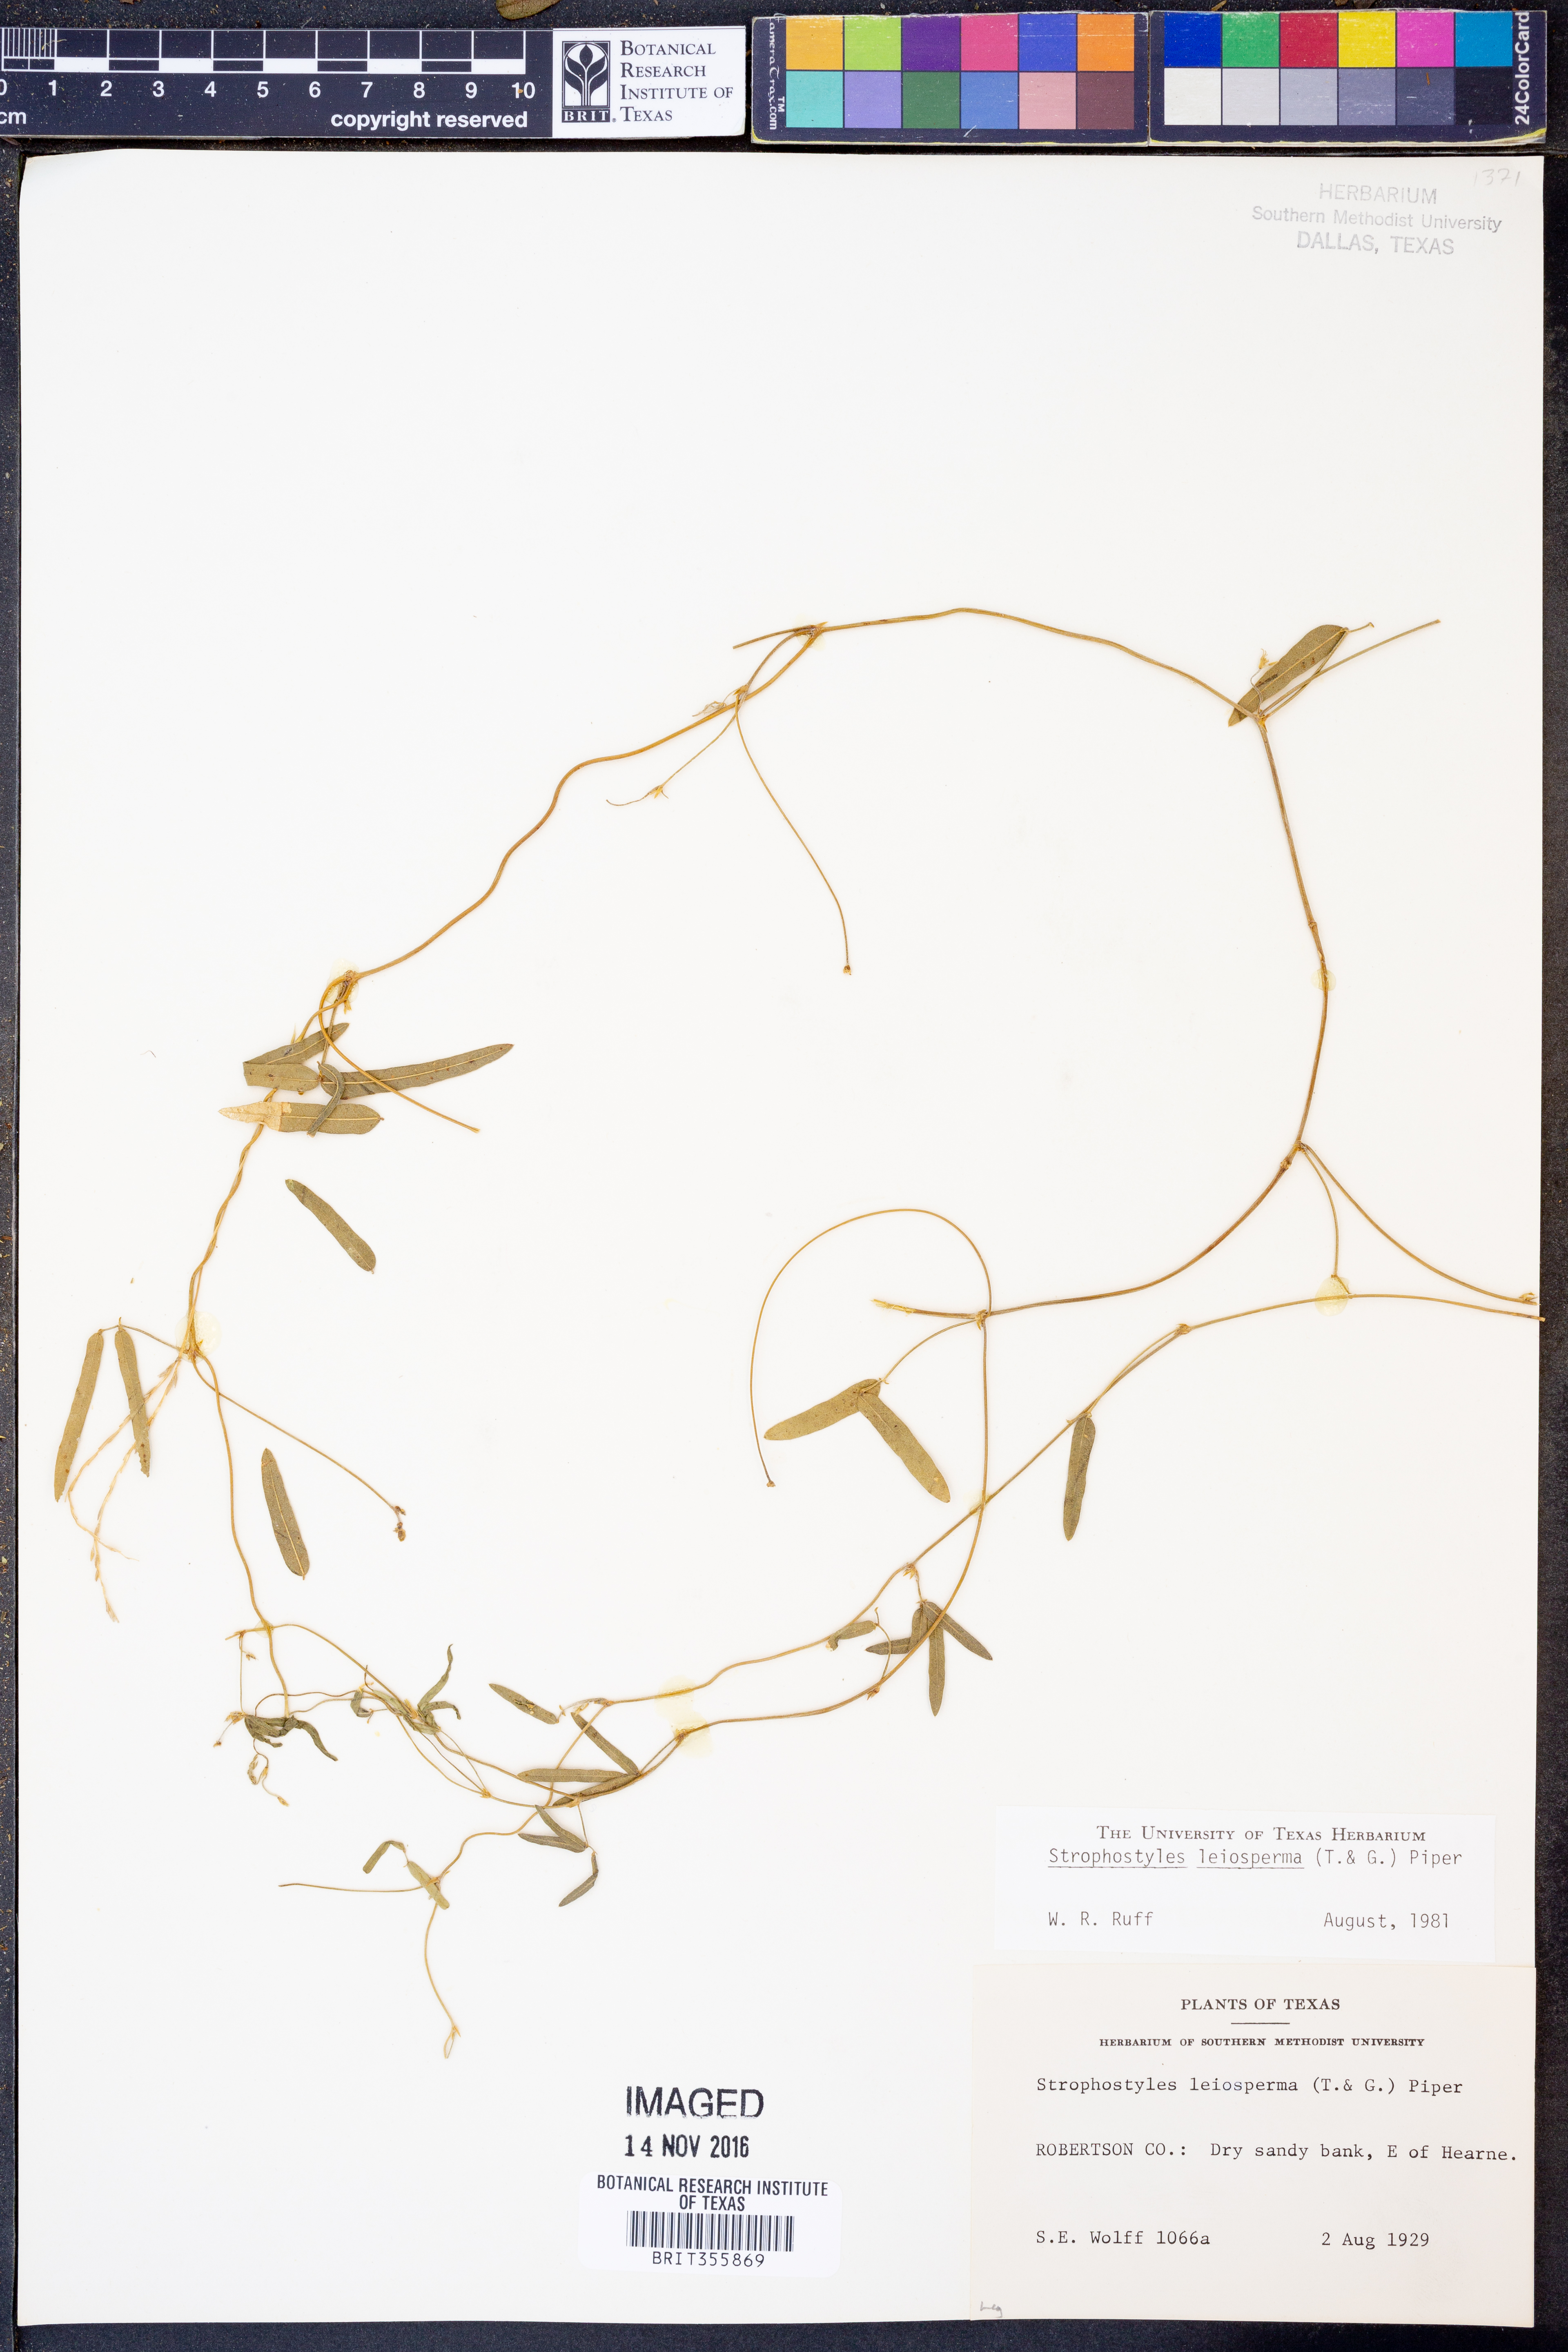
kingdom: Plantae
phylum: Tracheophyta
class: Magnoliopsida
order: Fabales
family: Fabaceae
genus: Strophostyles
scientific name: Strophostyles leiosperma
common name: Smooth-seed wild bean
